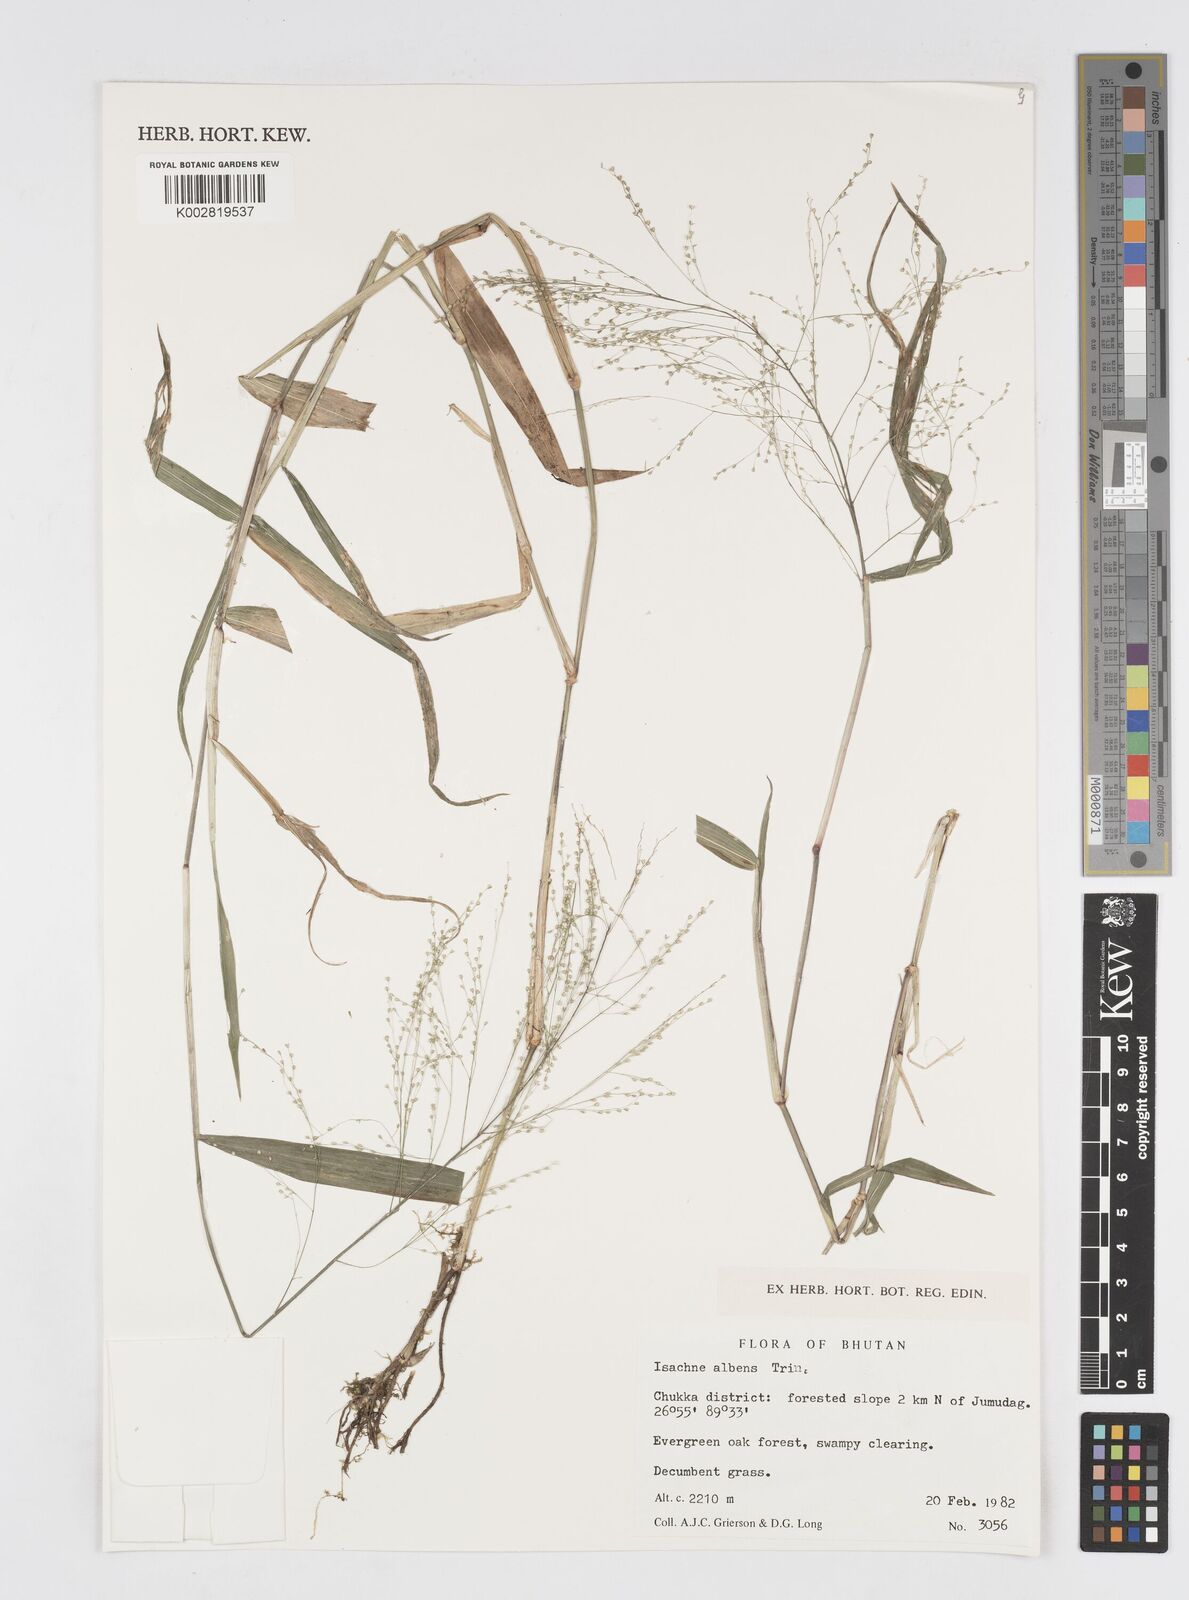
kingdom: Plantae
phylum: Tracheophyta
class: Liliopsida
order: Poales
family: Poaceae
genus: Isachne
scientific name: Isachne albens
